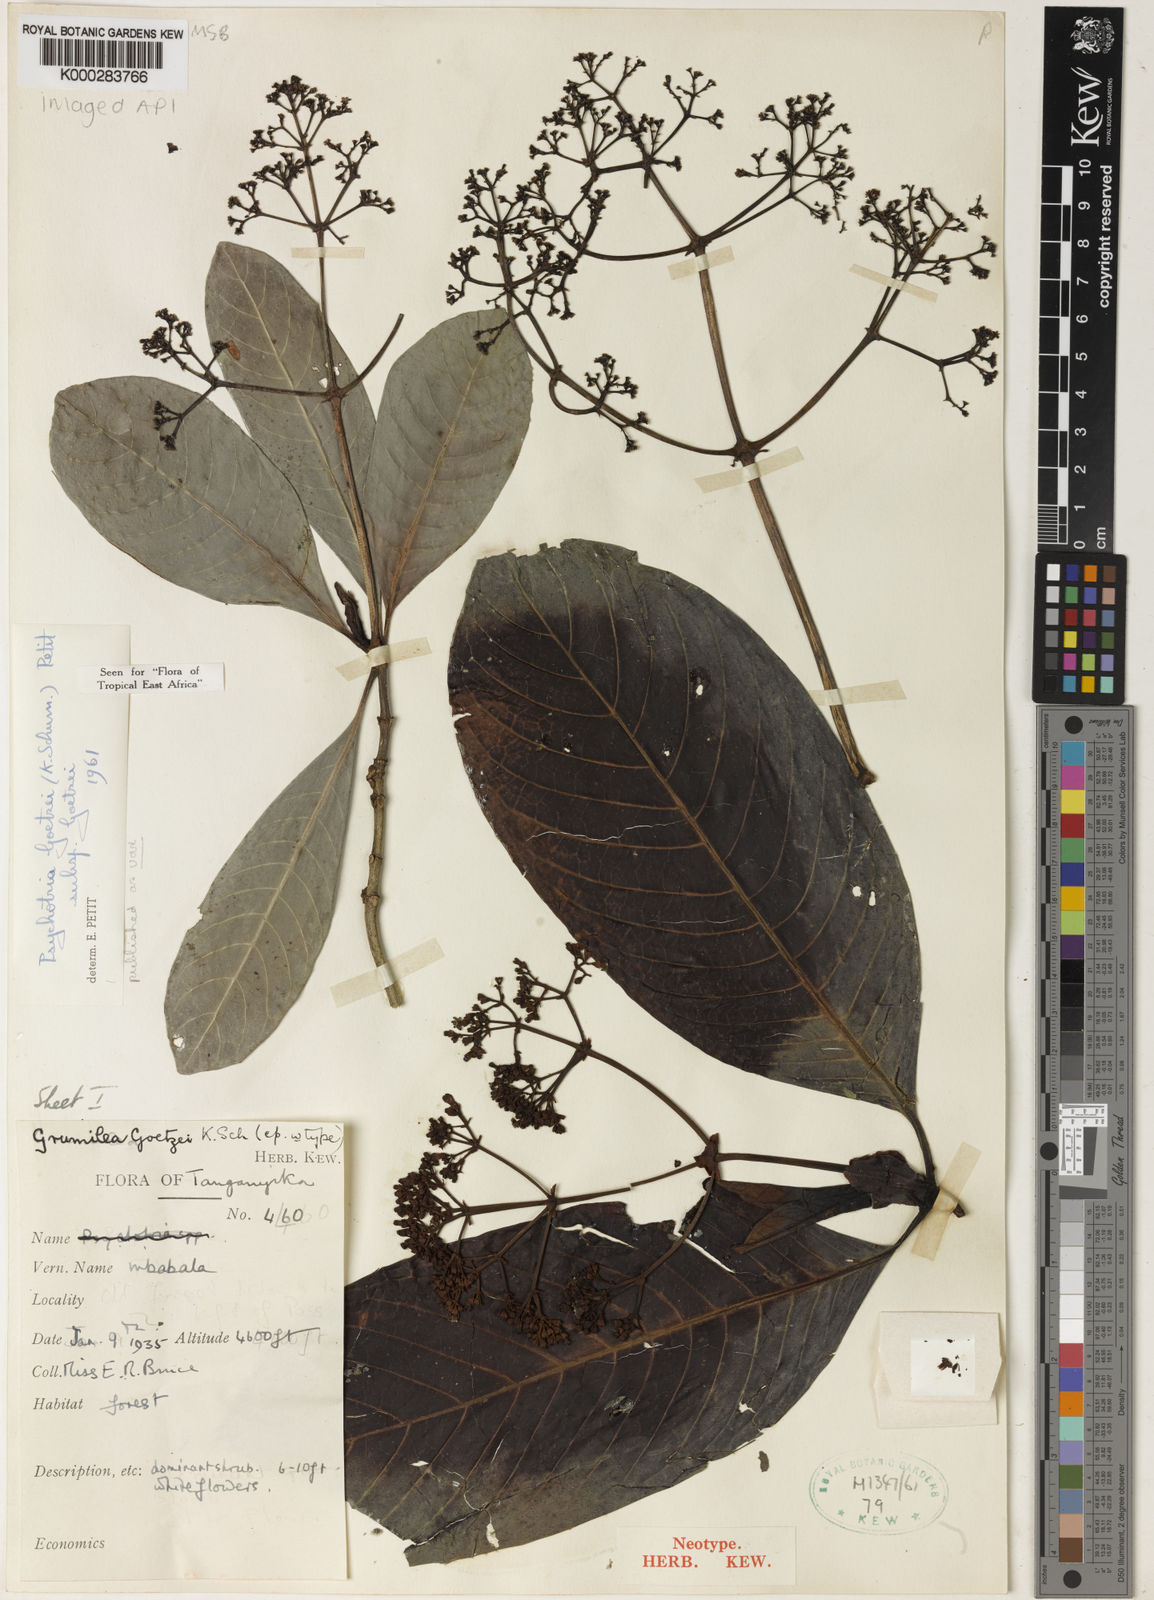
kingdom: Plantae
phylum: Tracheophyta
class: Magnoliopsida
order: Gentianales
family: Rubiaceae
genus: Psychotria
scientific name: Psychotria goetzei
